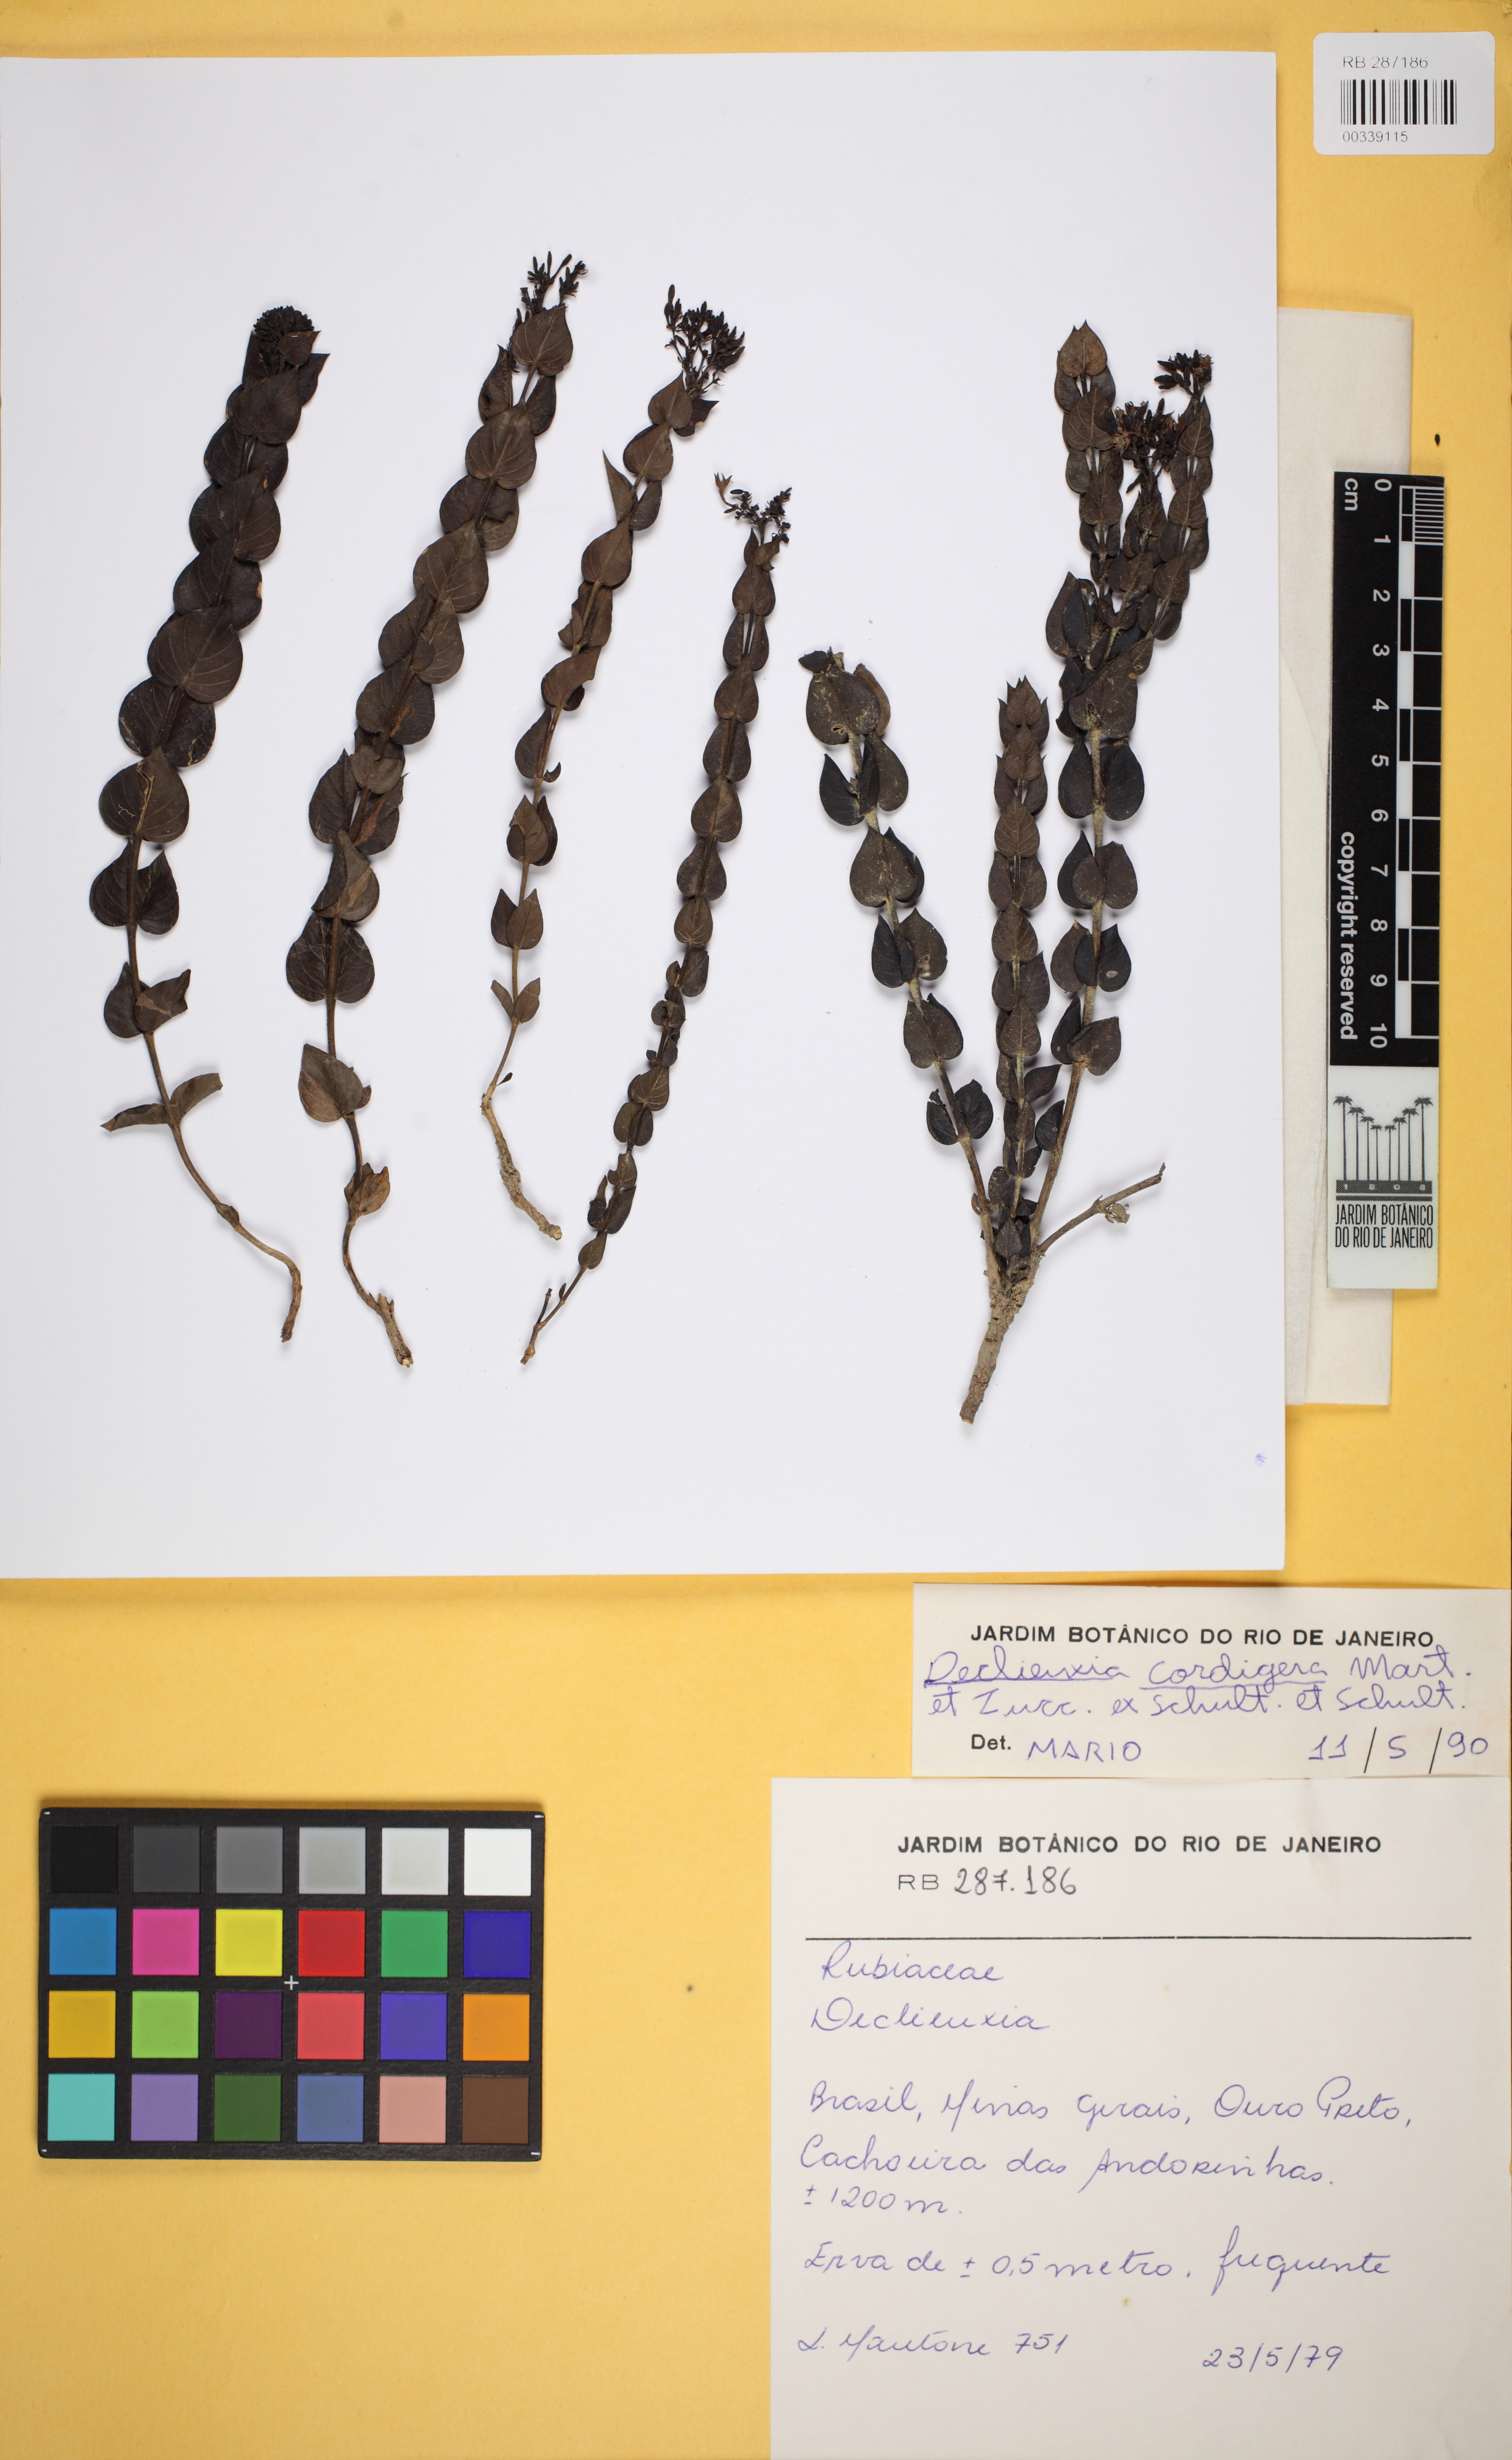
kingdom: Plantae
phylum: Tracheophyta
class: Magnoliopsida
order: Gentianales
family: Rubiaceae
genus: Declieuxia
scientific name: Declieuxia cordigera
